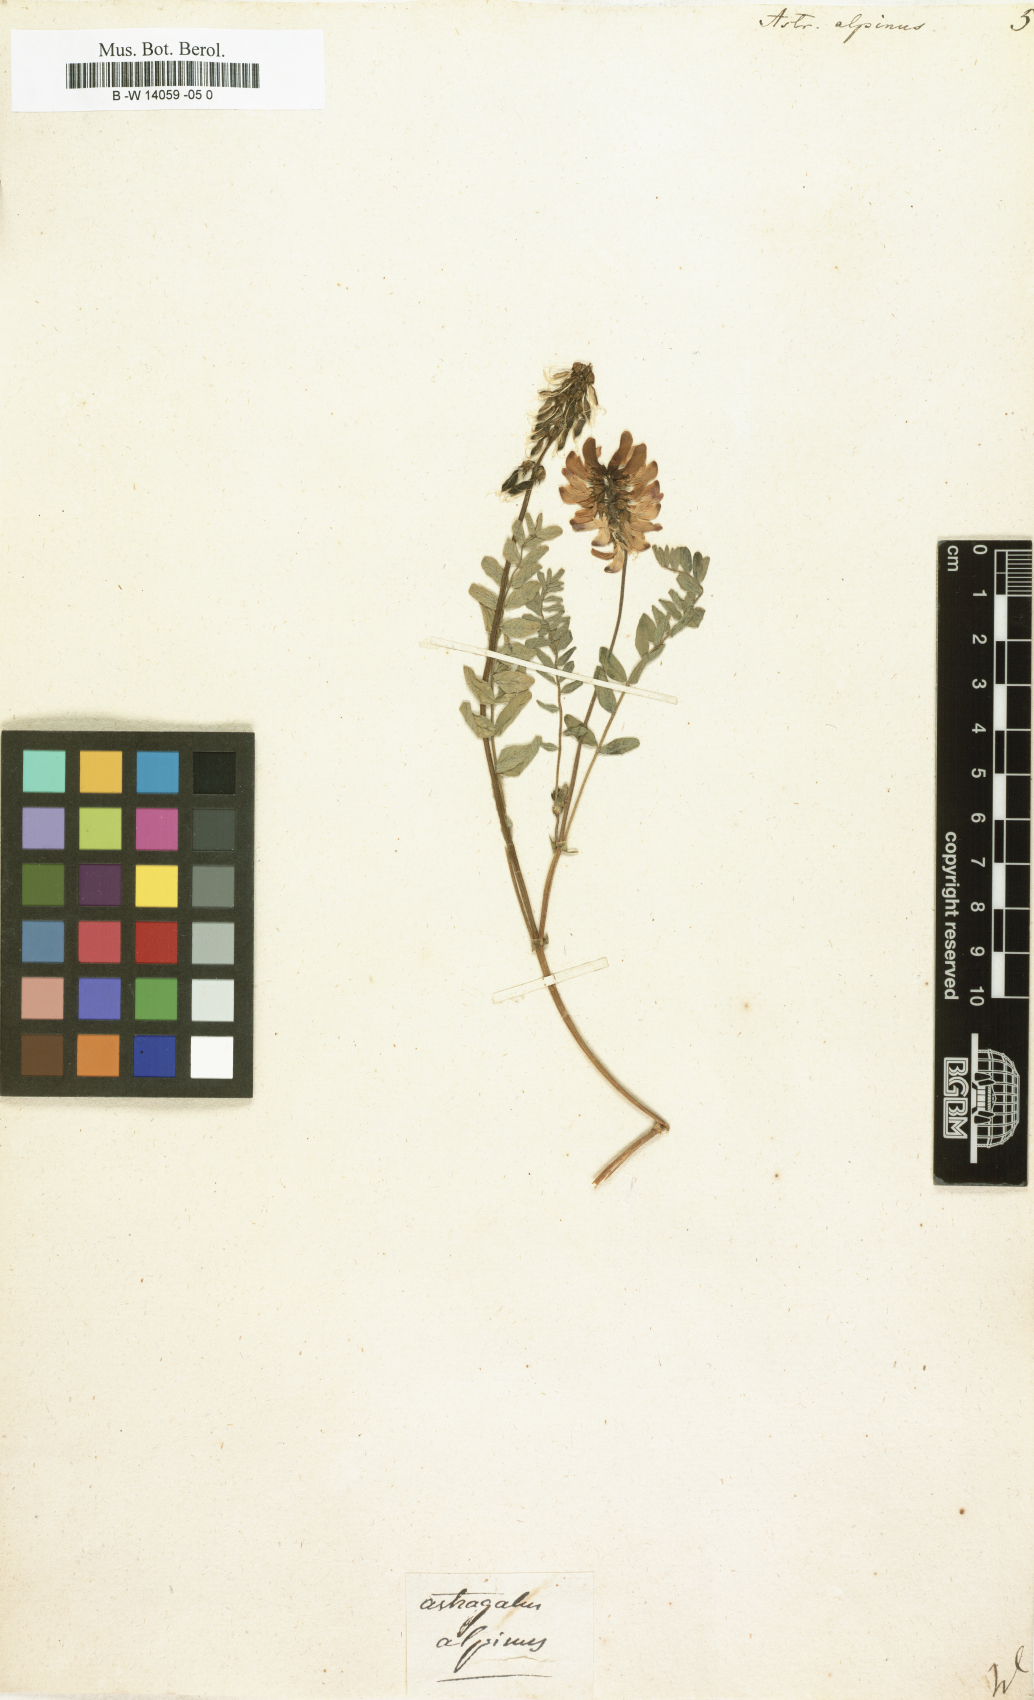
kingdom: Plantae
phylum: Tracheophyta
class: Magnoliopsida
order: Fabales
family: Fabaceae
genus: Astragalus
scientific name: Astragalus alpinus
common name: Alpine milk-vetch
